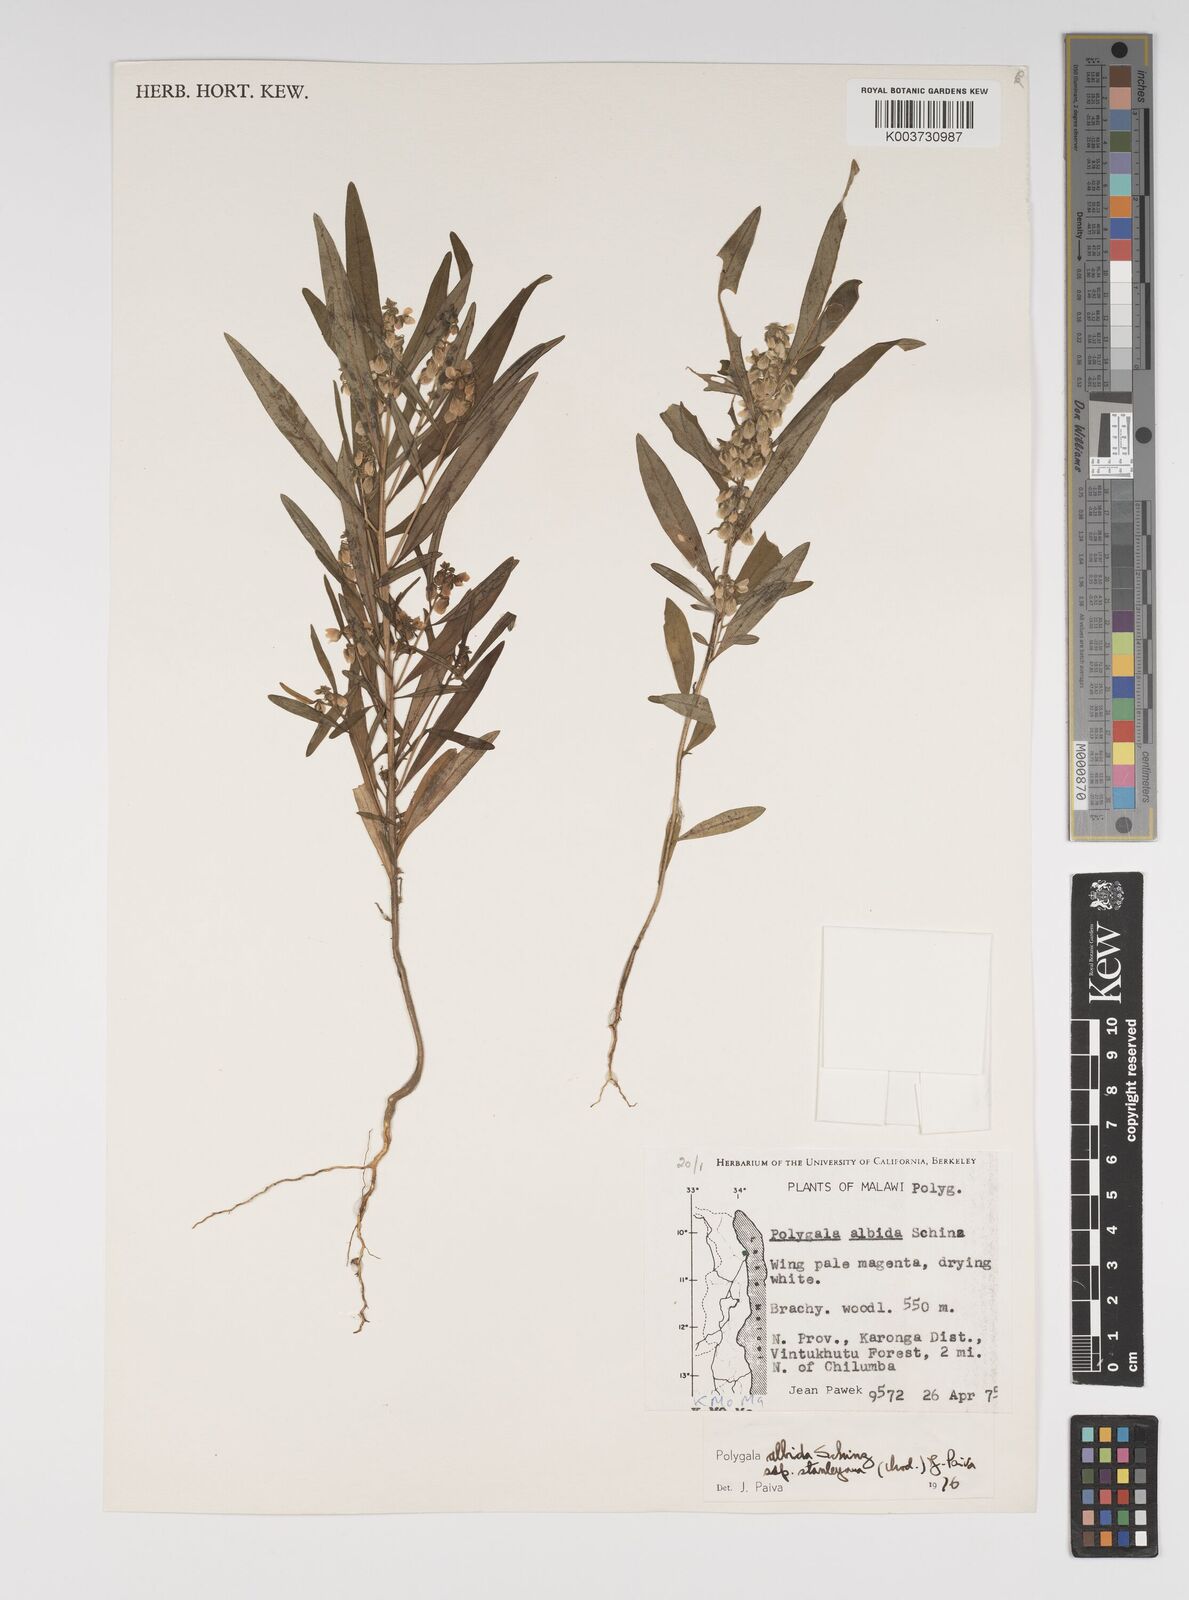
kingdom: Plantae
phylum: Tracheophyta
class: Magnoliopsida
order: Fabales
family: Polygalaceae
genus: Polygala
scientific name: Polygala albida
